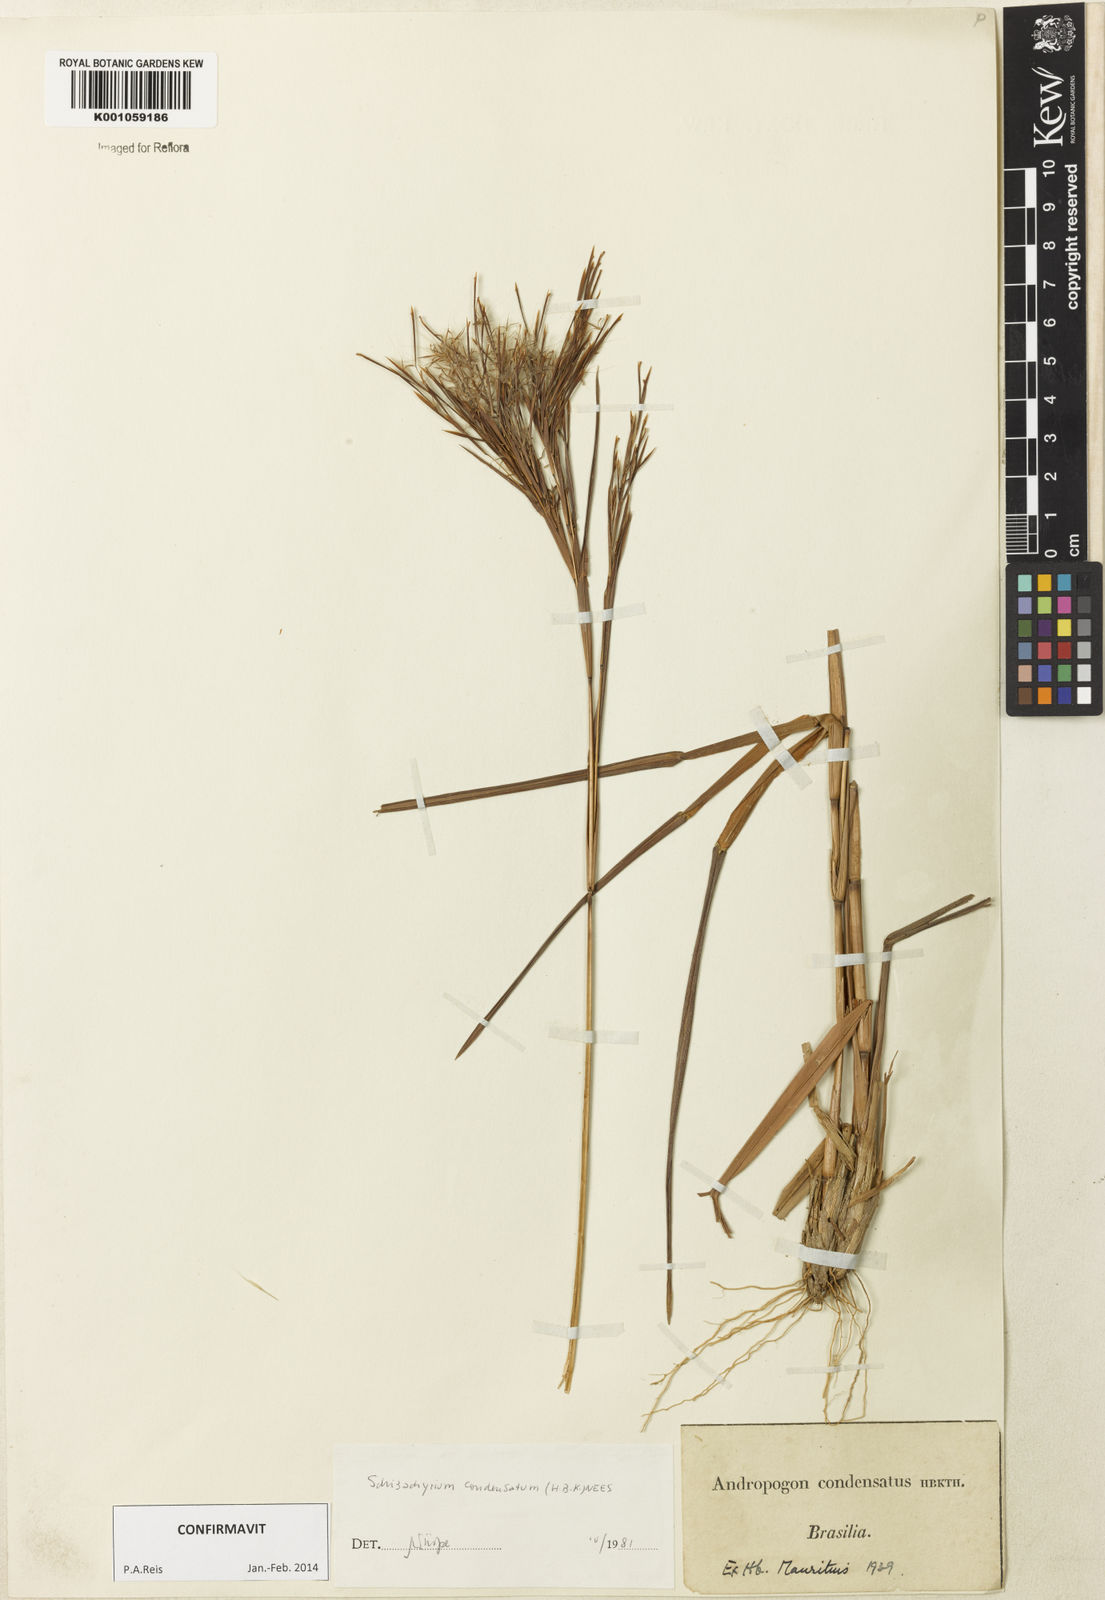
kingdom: Plantae
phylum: Tracheophyta
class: Liliopsida
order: Poales
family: Poaceae
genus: Schizachyrium
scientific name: Schizachyrium condensatum
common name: Bush beardgrass
